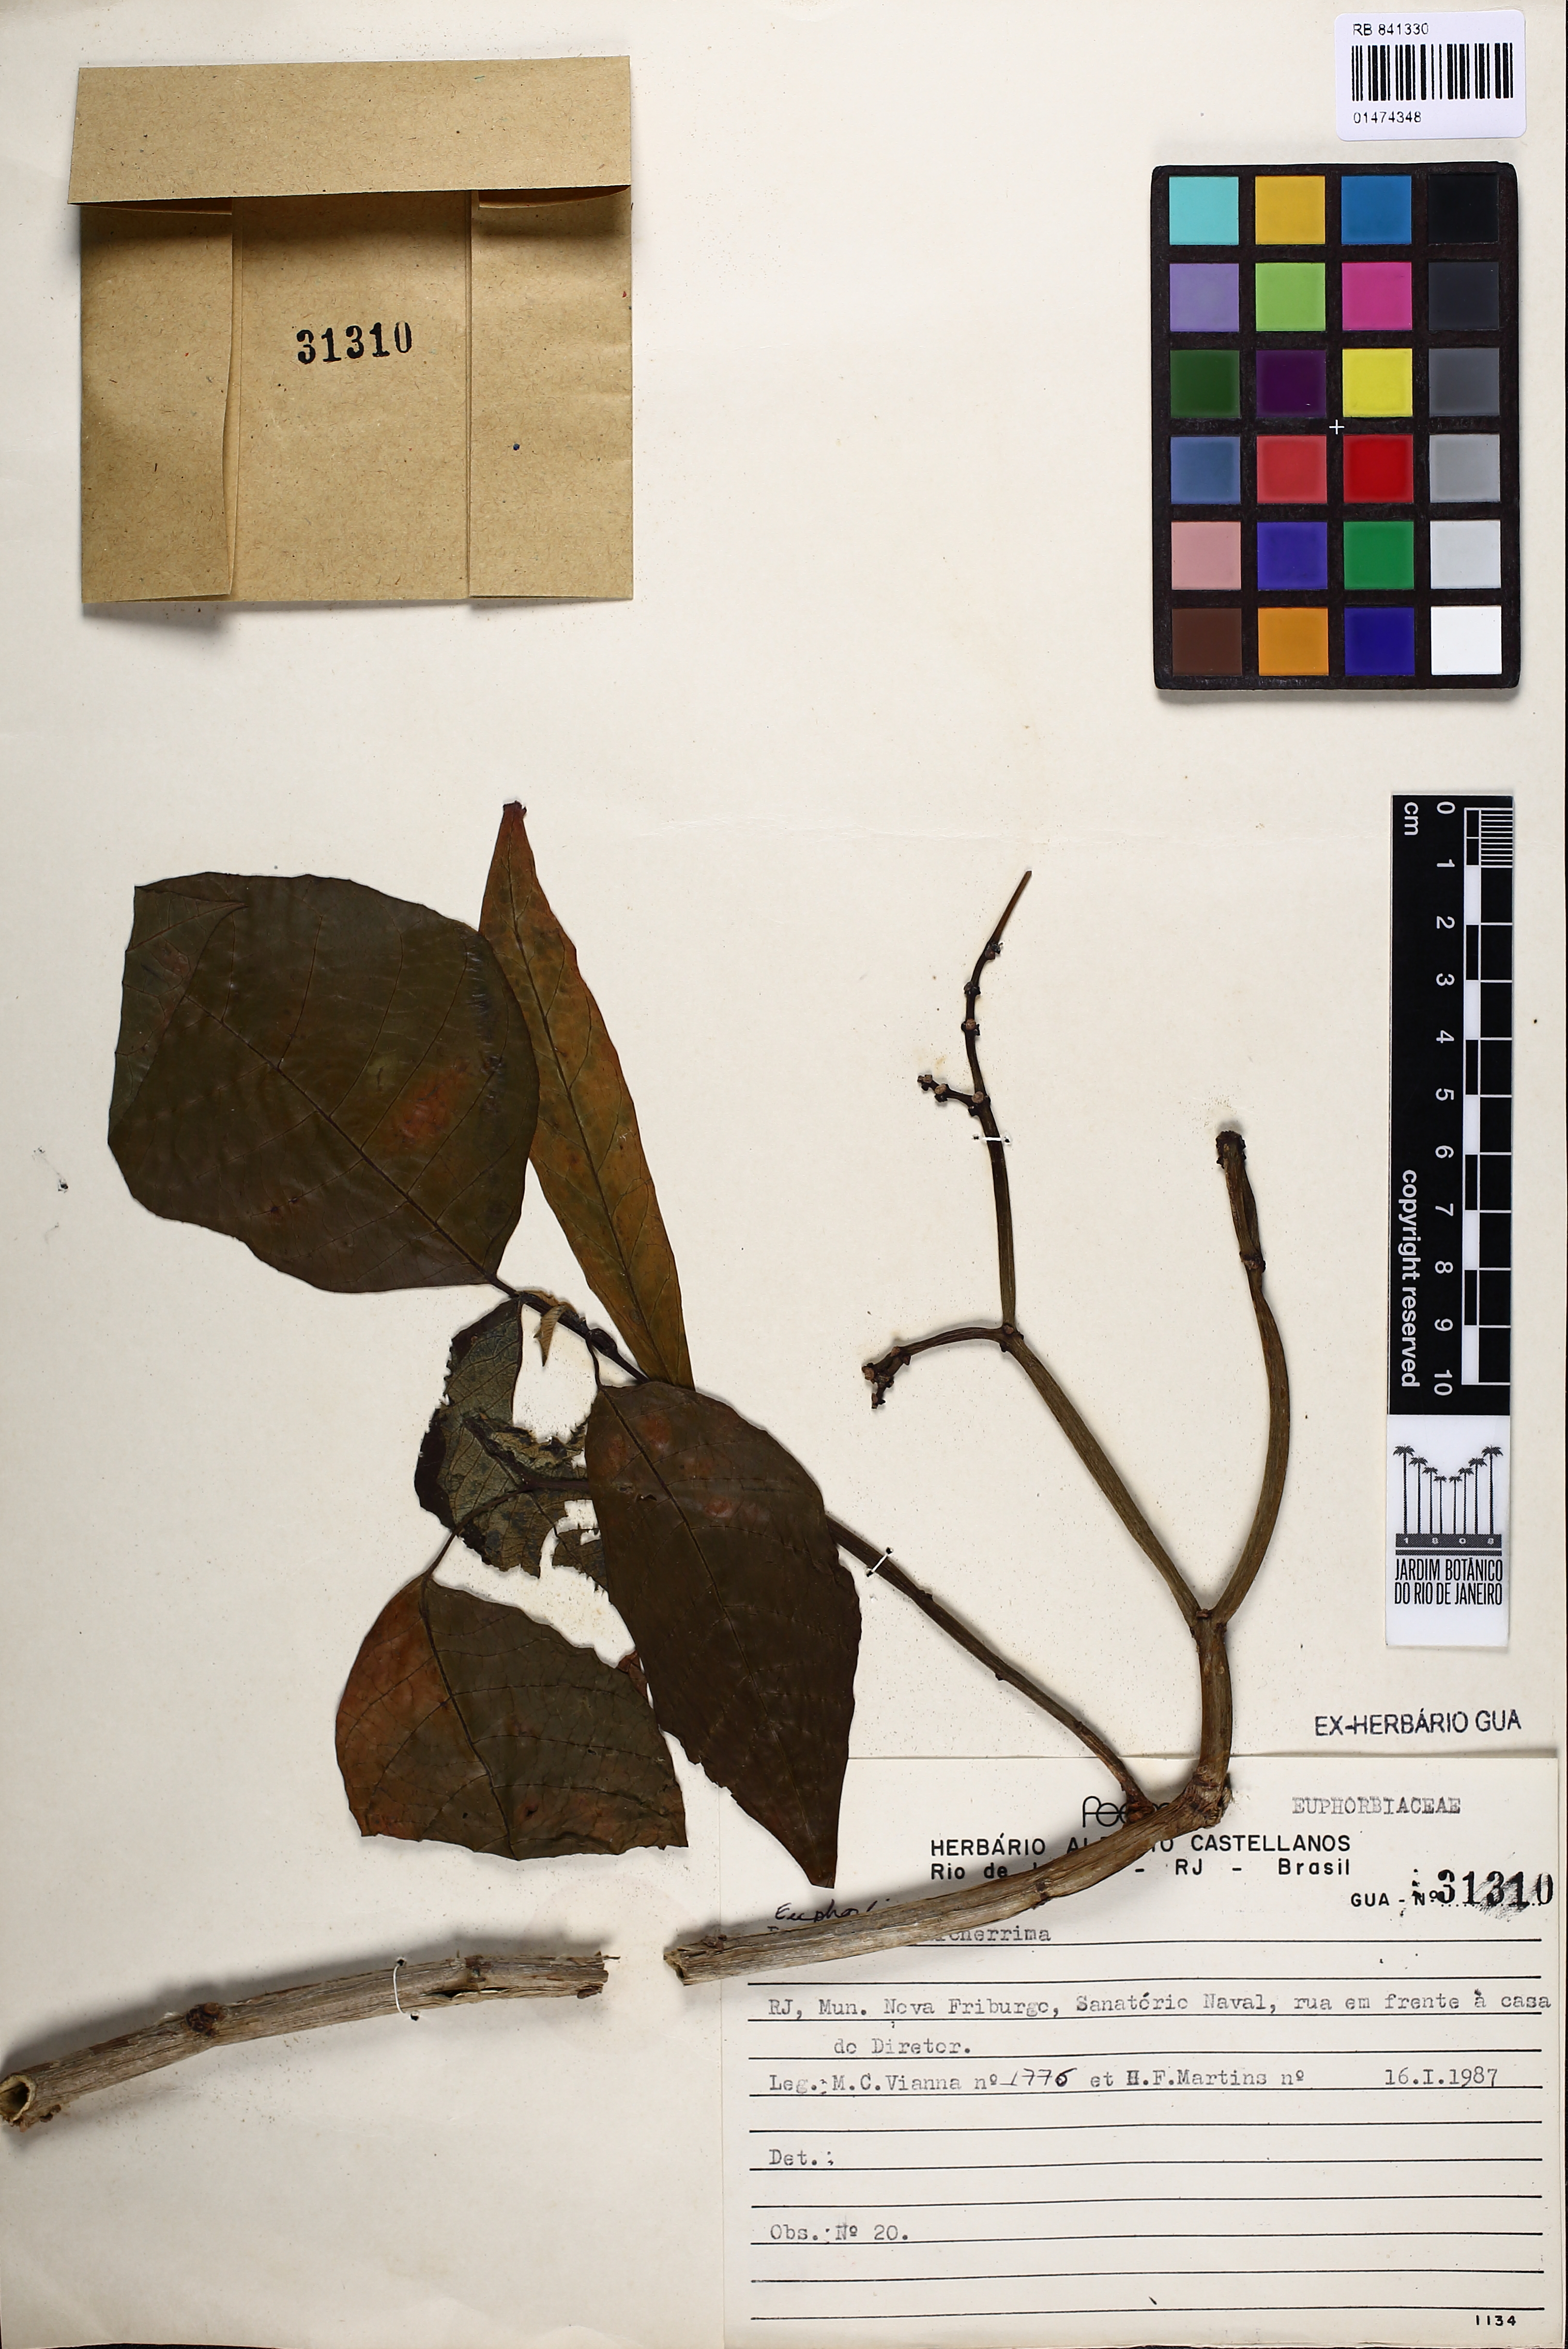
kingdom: Plantae
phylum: Tracheophyta
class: Magnoliopsida
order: Malpighiales
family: Euphorbiaceae
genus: Euphorbia
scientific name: Euphorbia hyssopifolia
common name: Hyssopleaf sandmat
